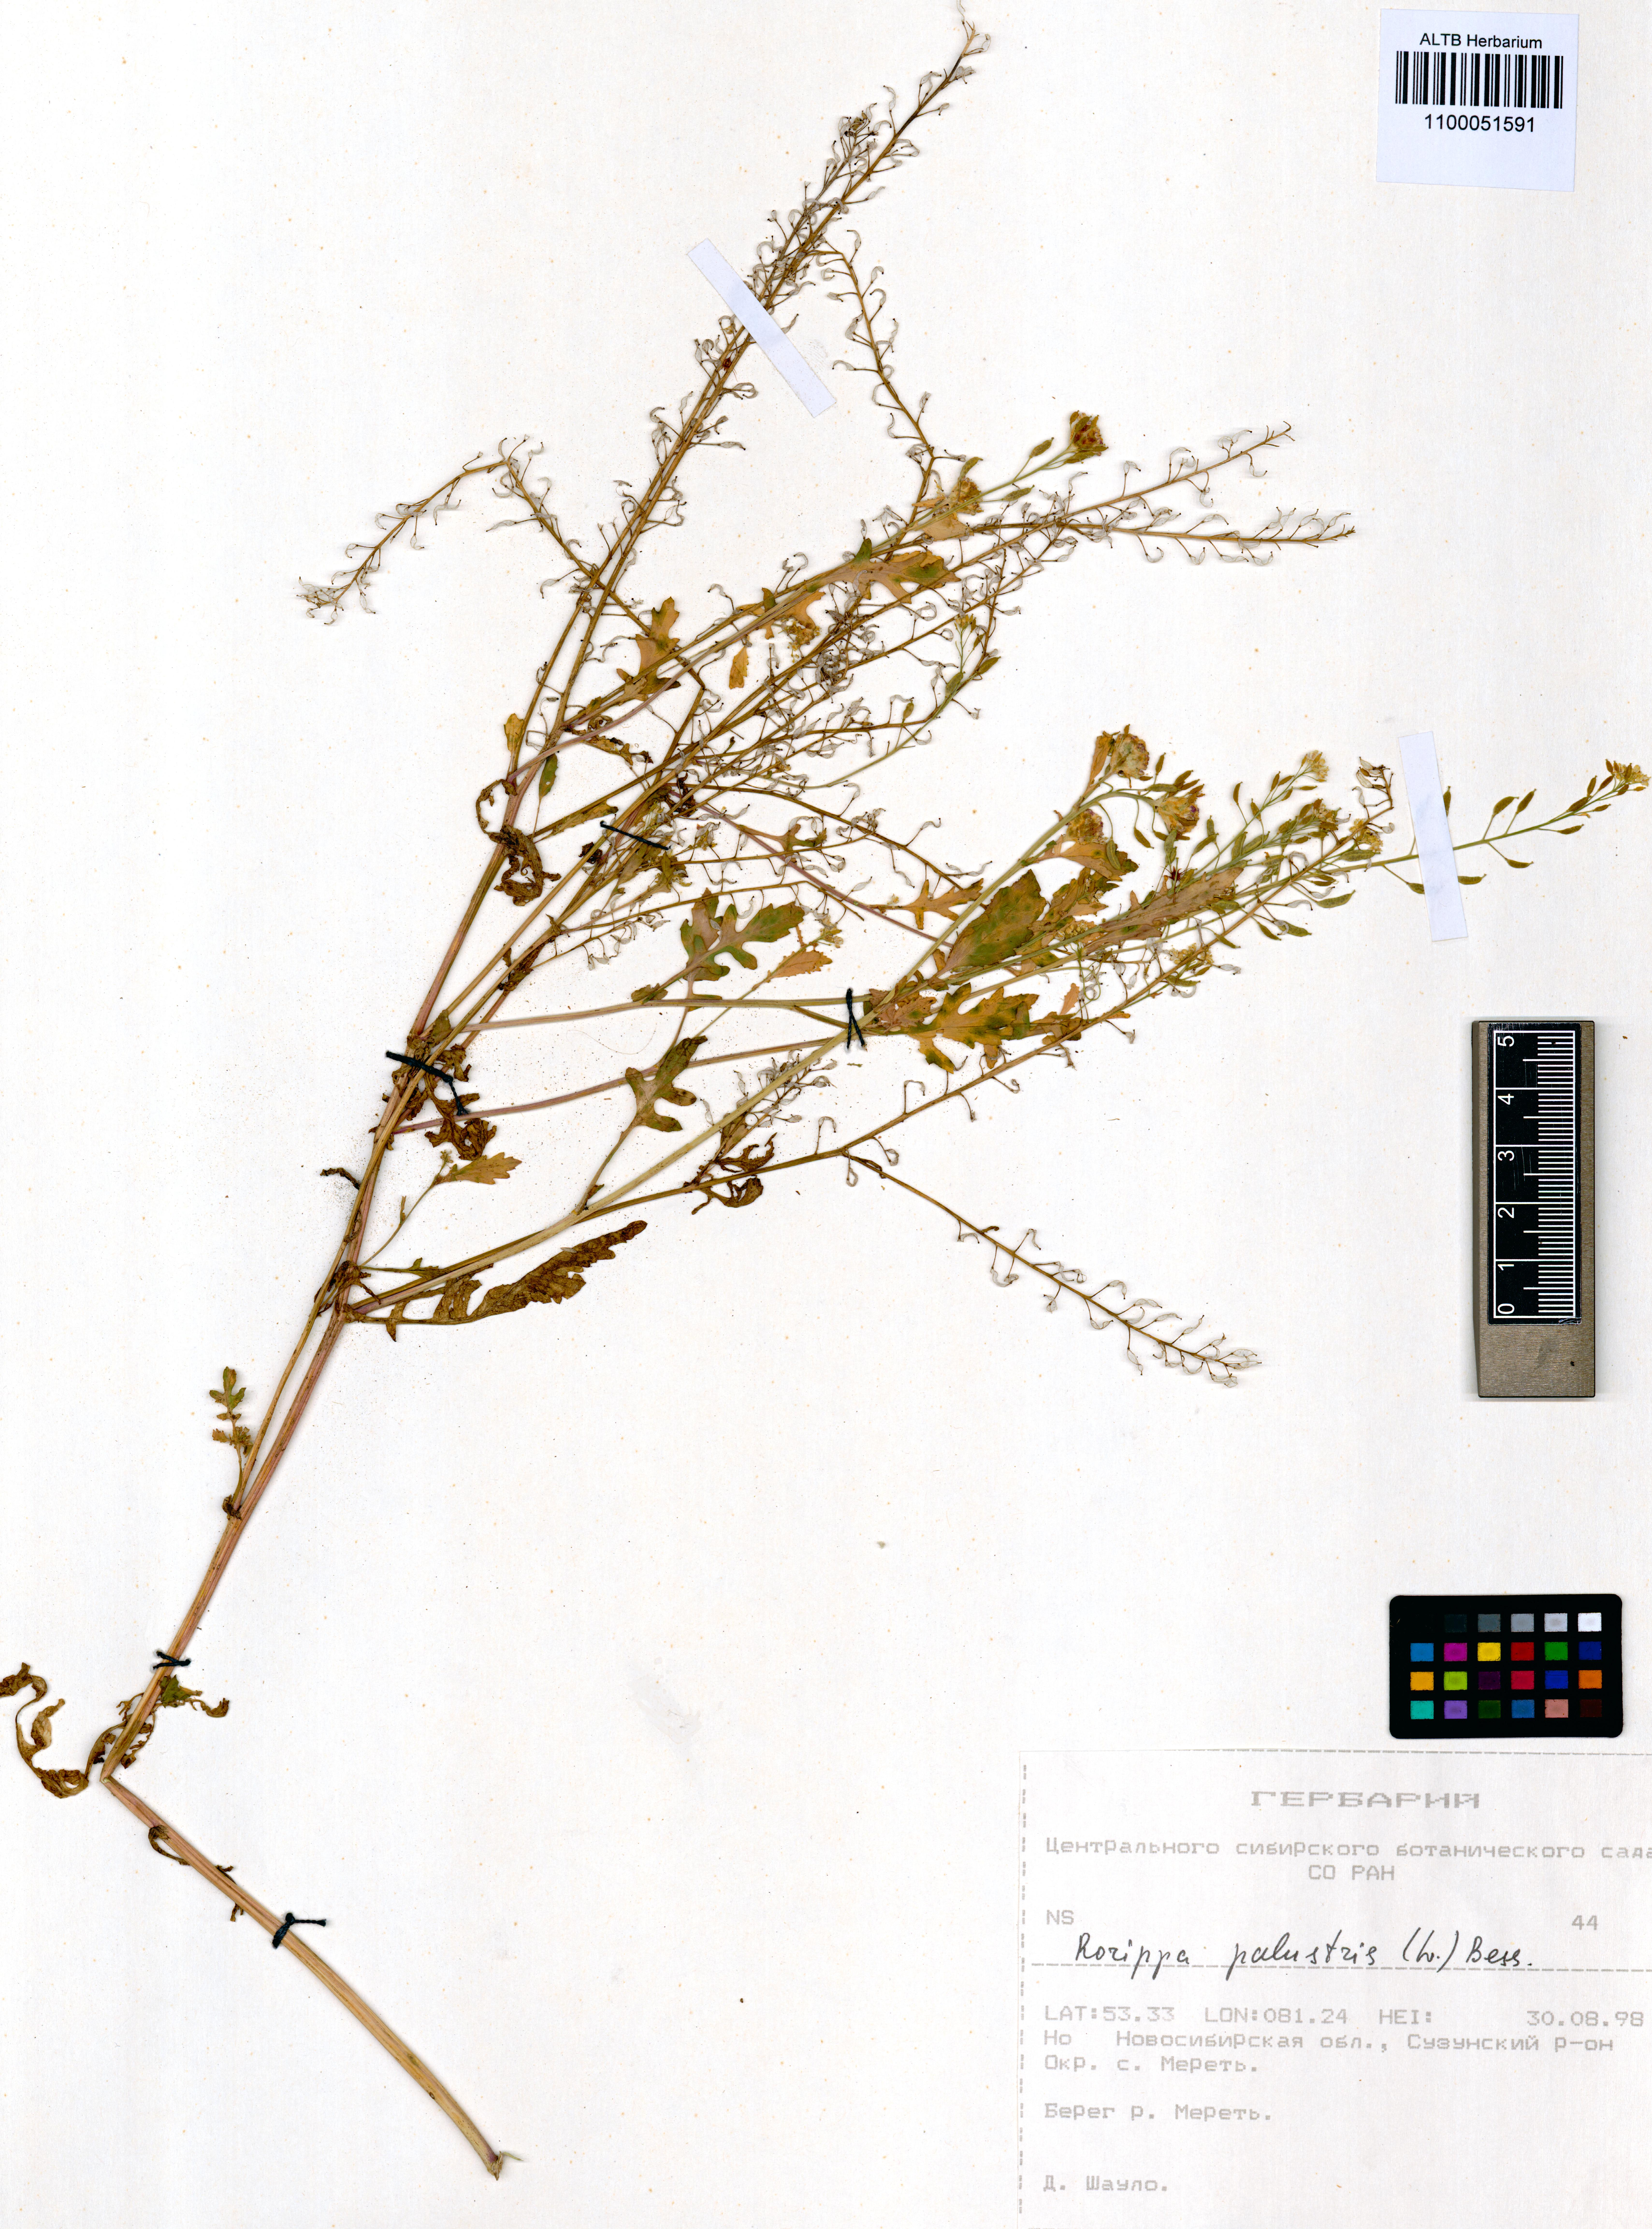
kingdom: Plantae
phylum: Tracheophyta
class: Magnoliopsida
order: Brassicales
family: Brassicaceae
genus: Rorippa
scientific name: Rorippa palustris
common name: Marsh yellow-cress
